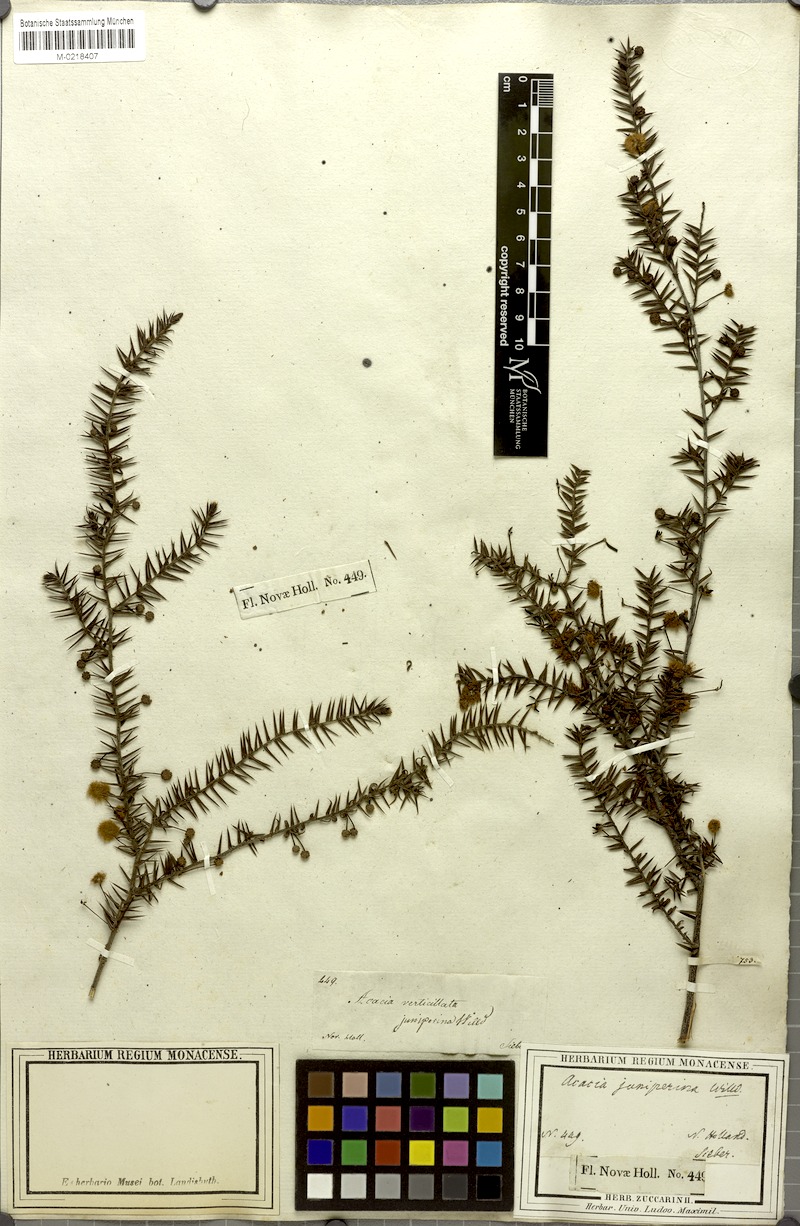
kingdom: Plantae
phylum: Tracheophyta
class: Magnoliopsida
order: Fabales
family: Fabaceae
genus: Acacia
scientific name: Acacia brownii
